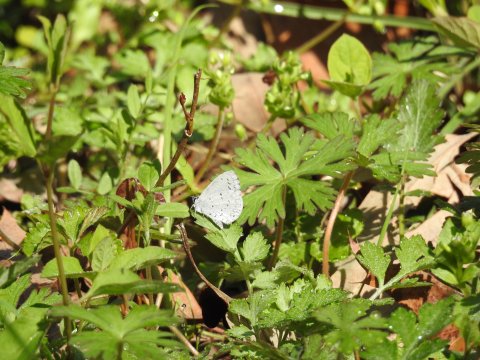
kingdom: Animalia
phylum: Arthropoda
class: Insecta
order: Lepidoptera
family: Lycaenidae
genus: Celastrina
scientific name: Celastrina
